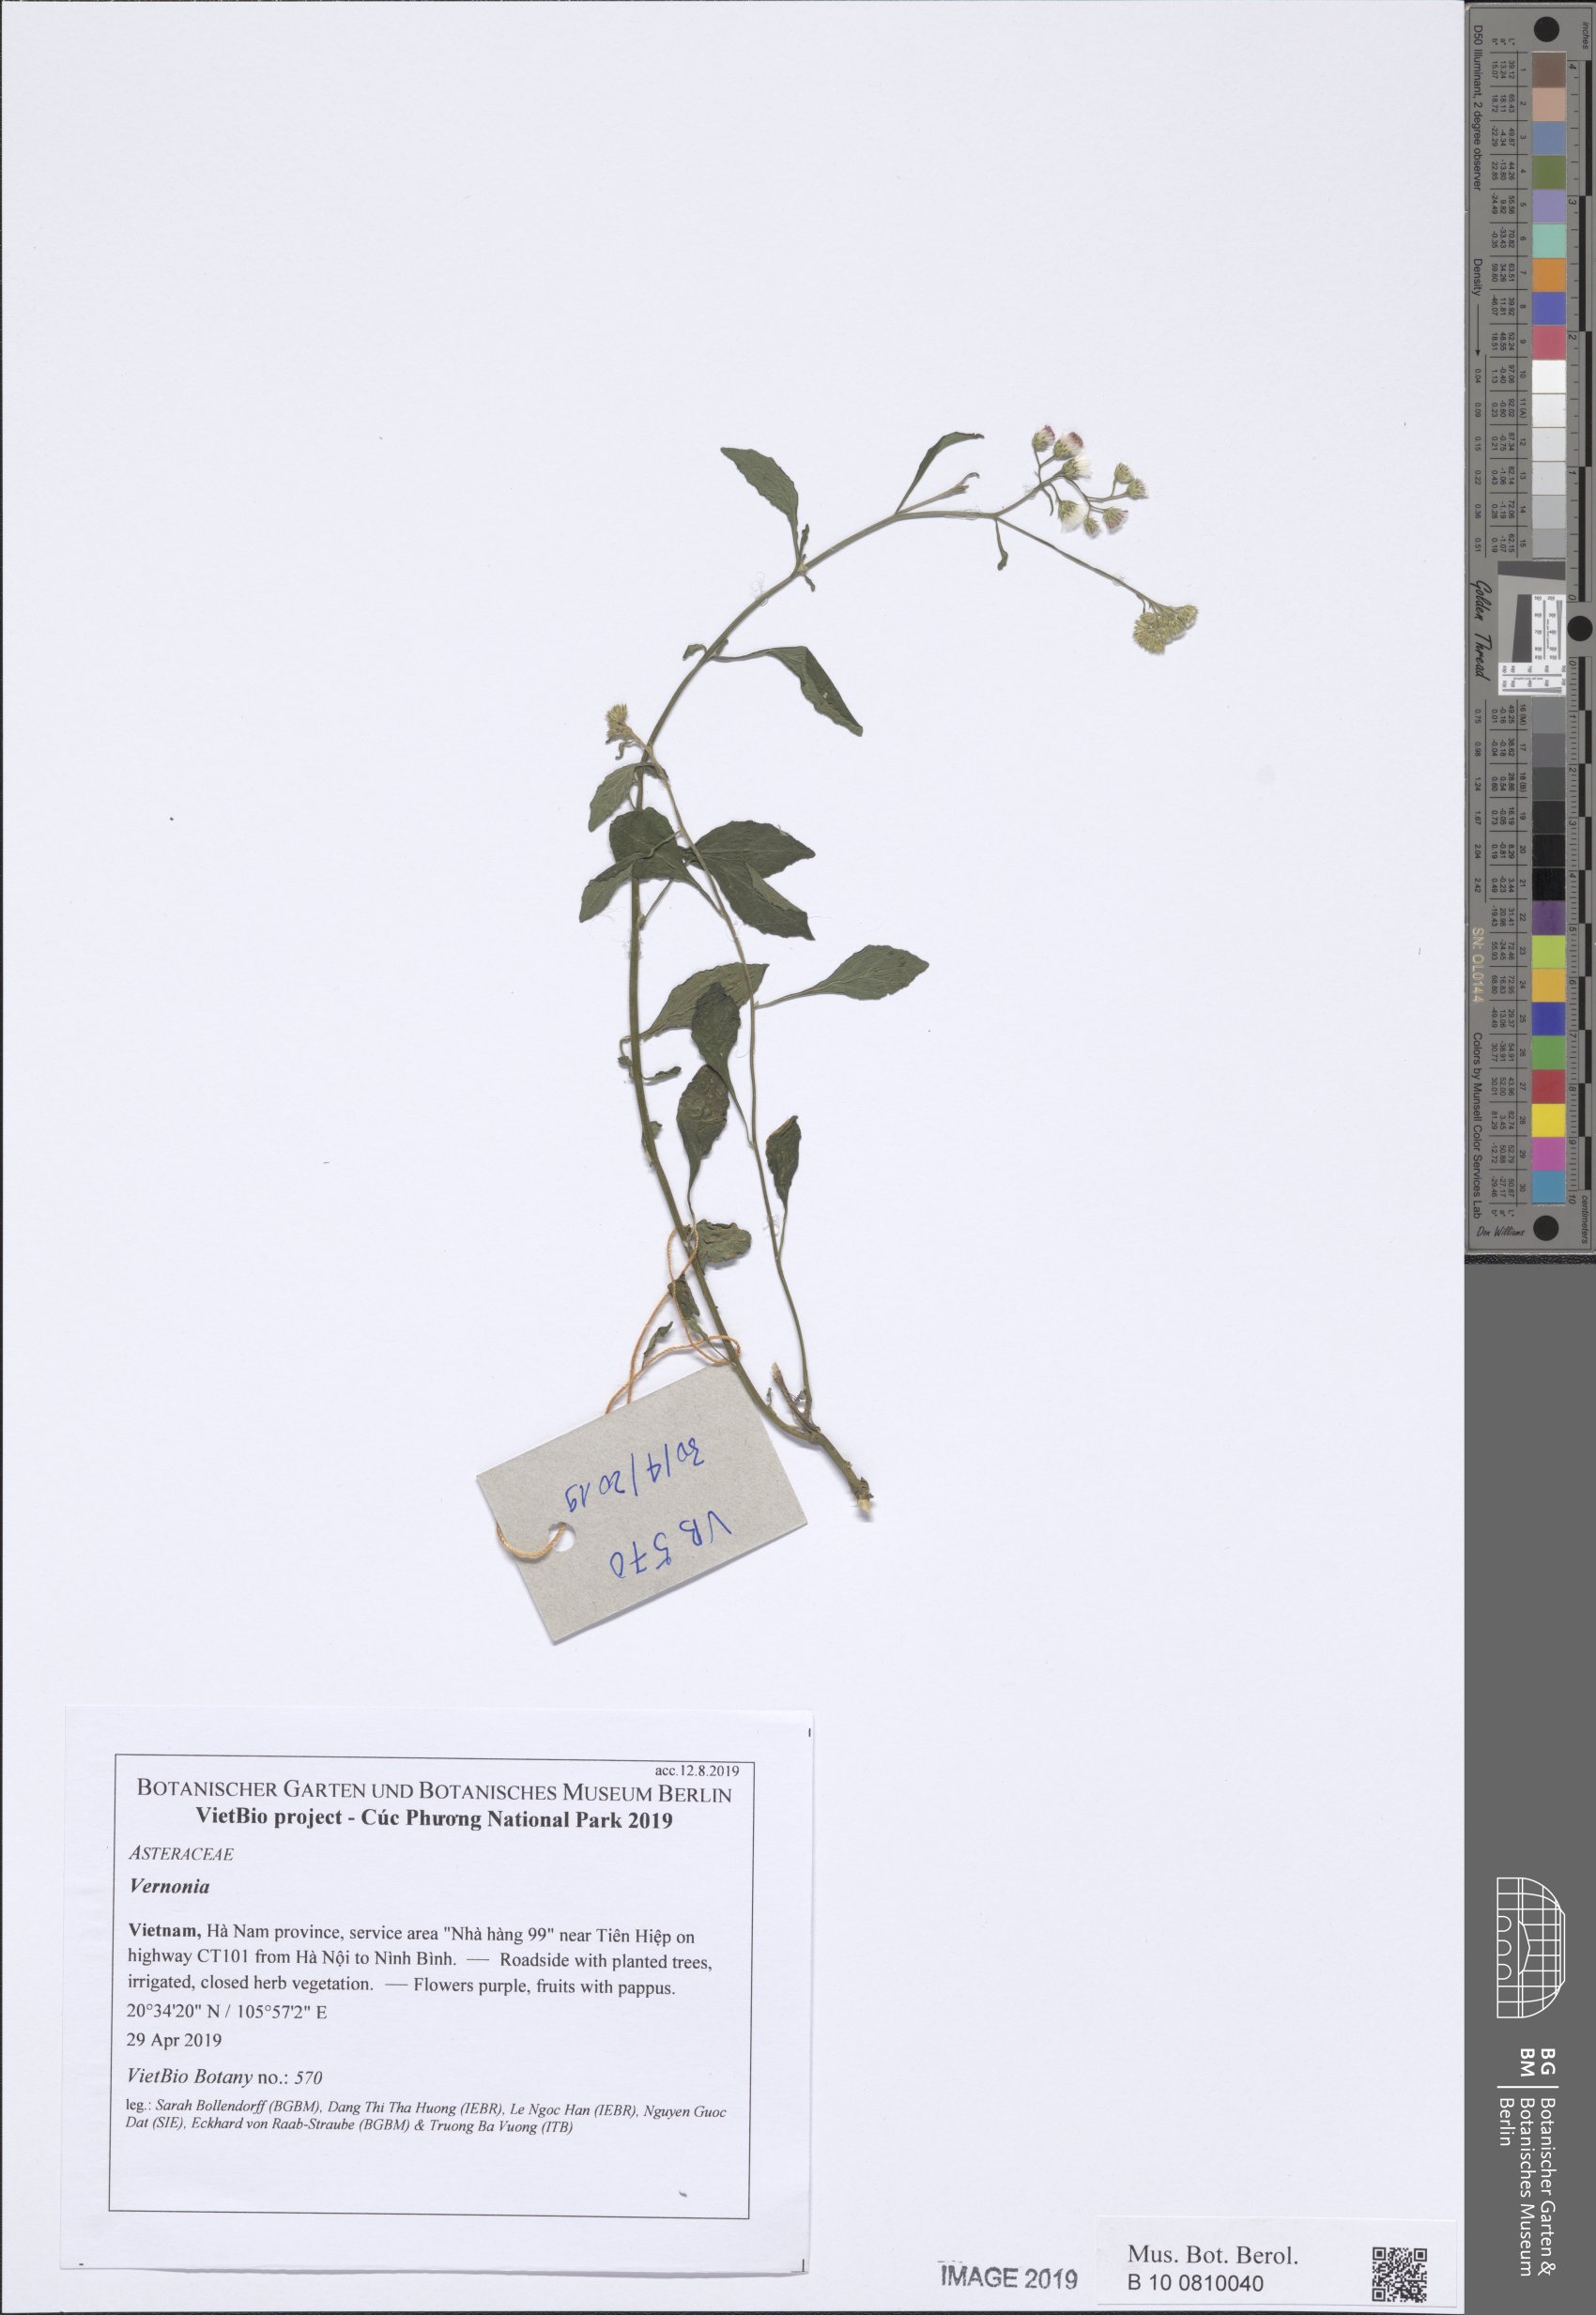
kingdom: Plantae
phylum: Tracheophyta
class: Magnoliopsida
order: Asterales
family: Asteraceae
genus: Cyanthillium
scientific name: Cyanthillium cinereum
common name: Little ironweed
